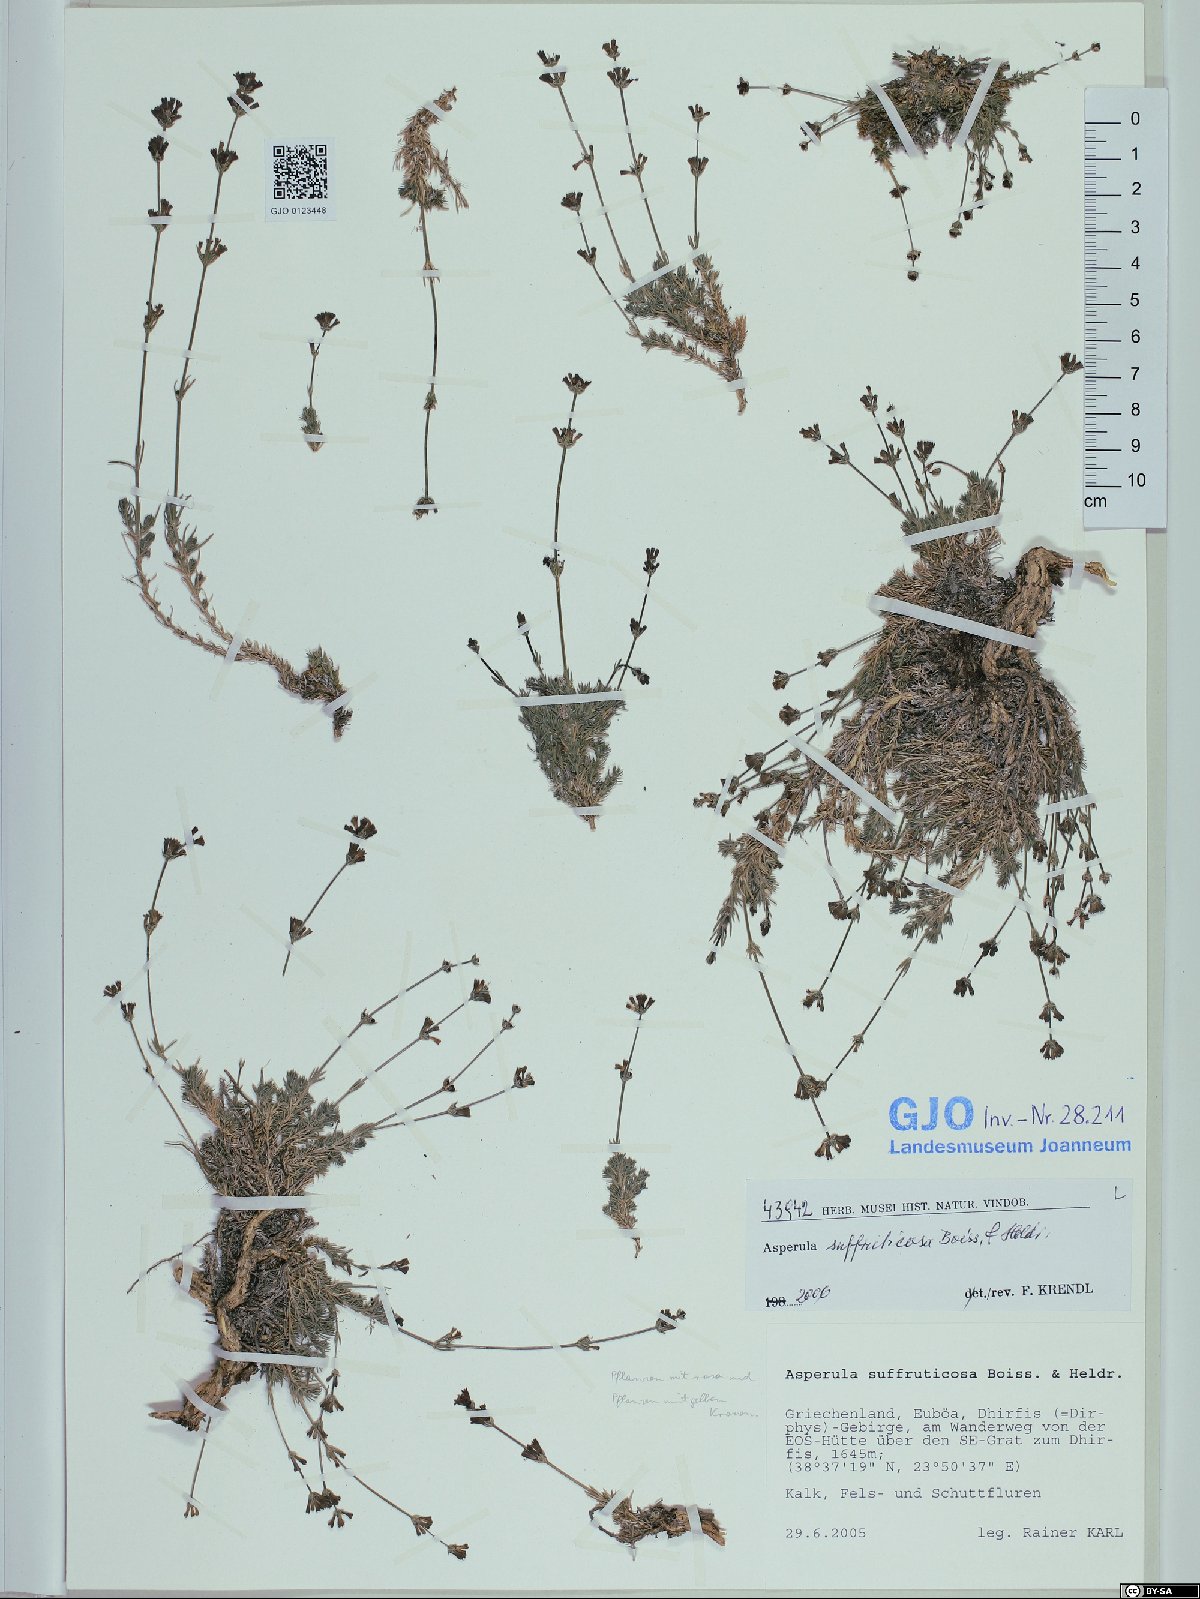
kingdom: Plantae
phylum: Tracheophyta
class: Magnoliopsida
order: Gentianales
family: Rubiaceae
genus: Cynanchica
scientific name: Cynanchica suffruticosa
